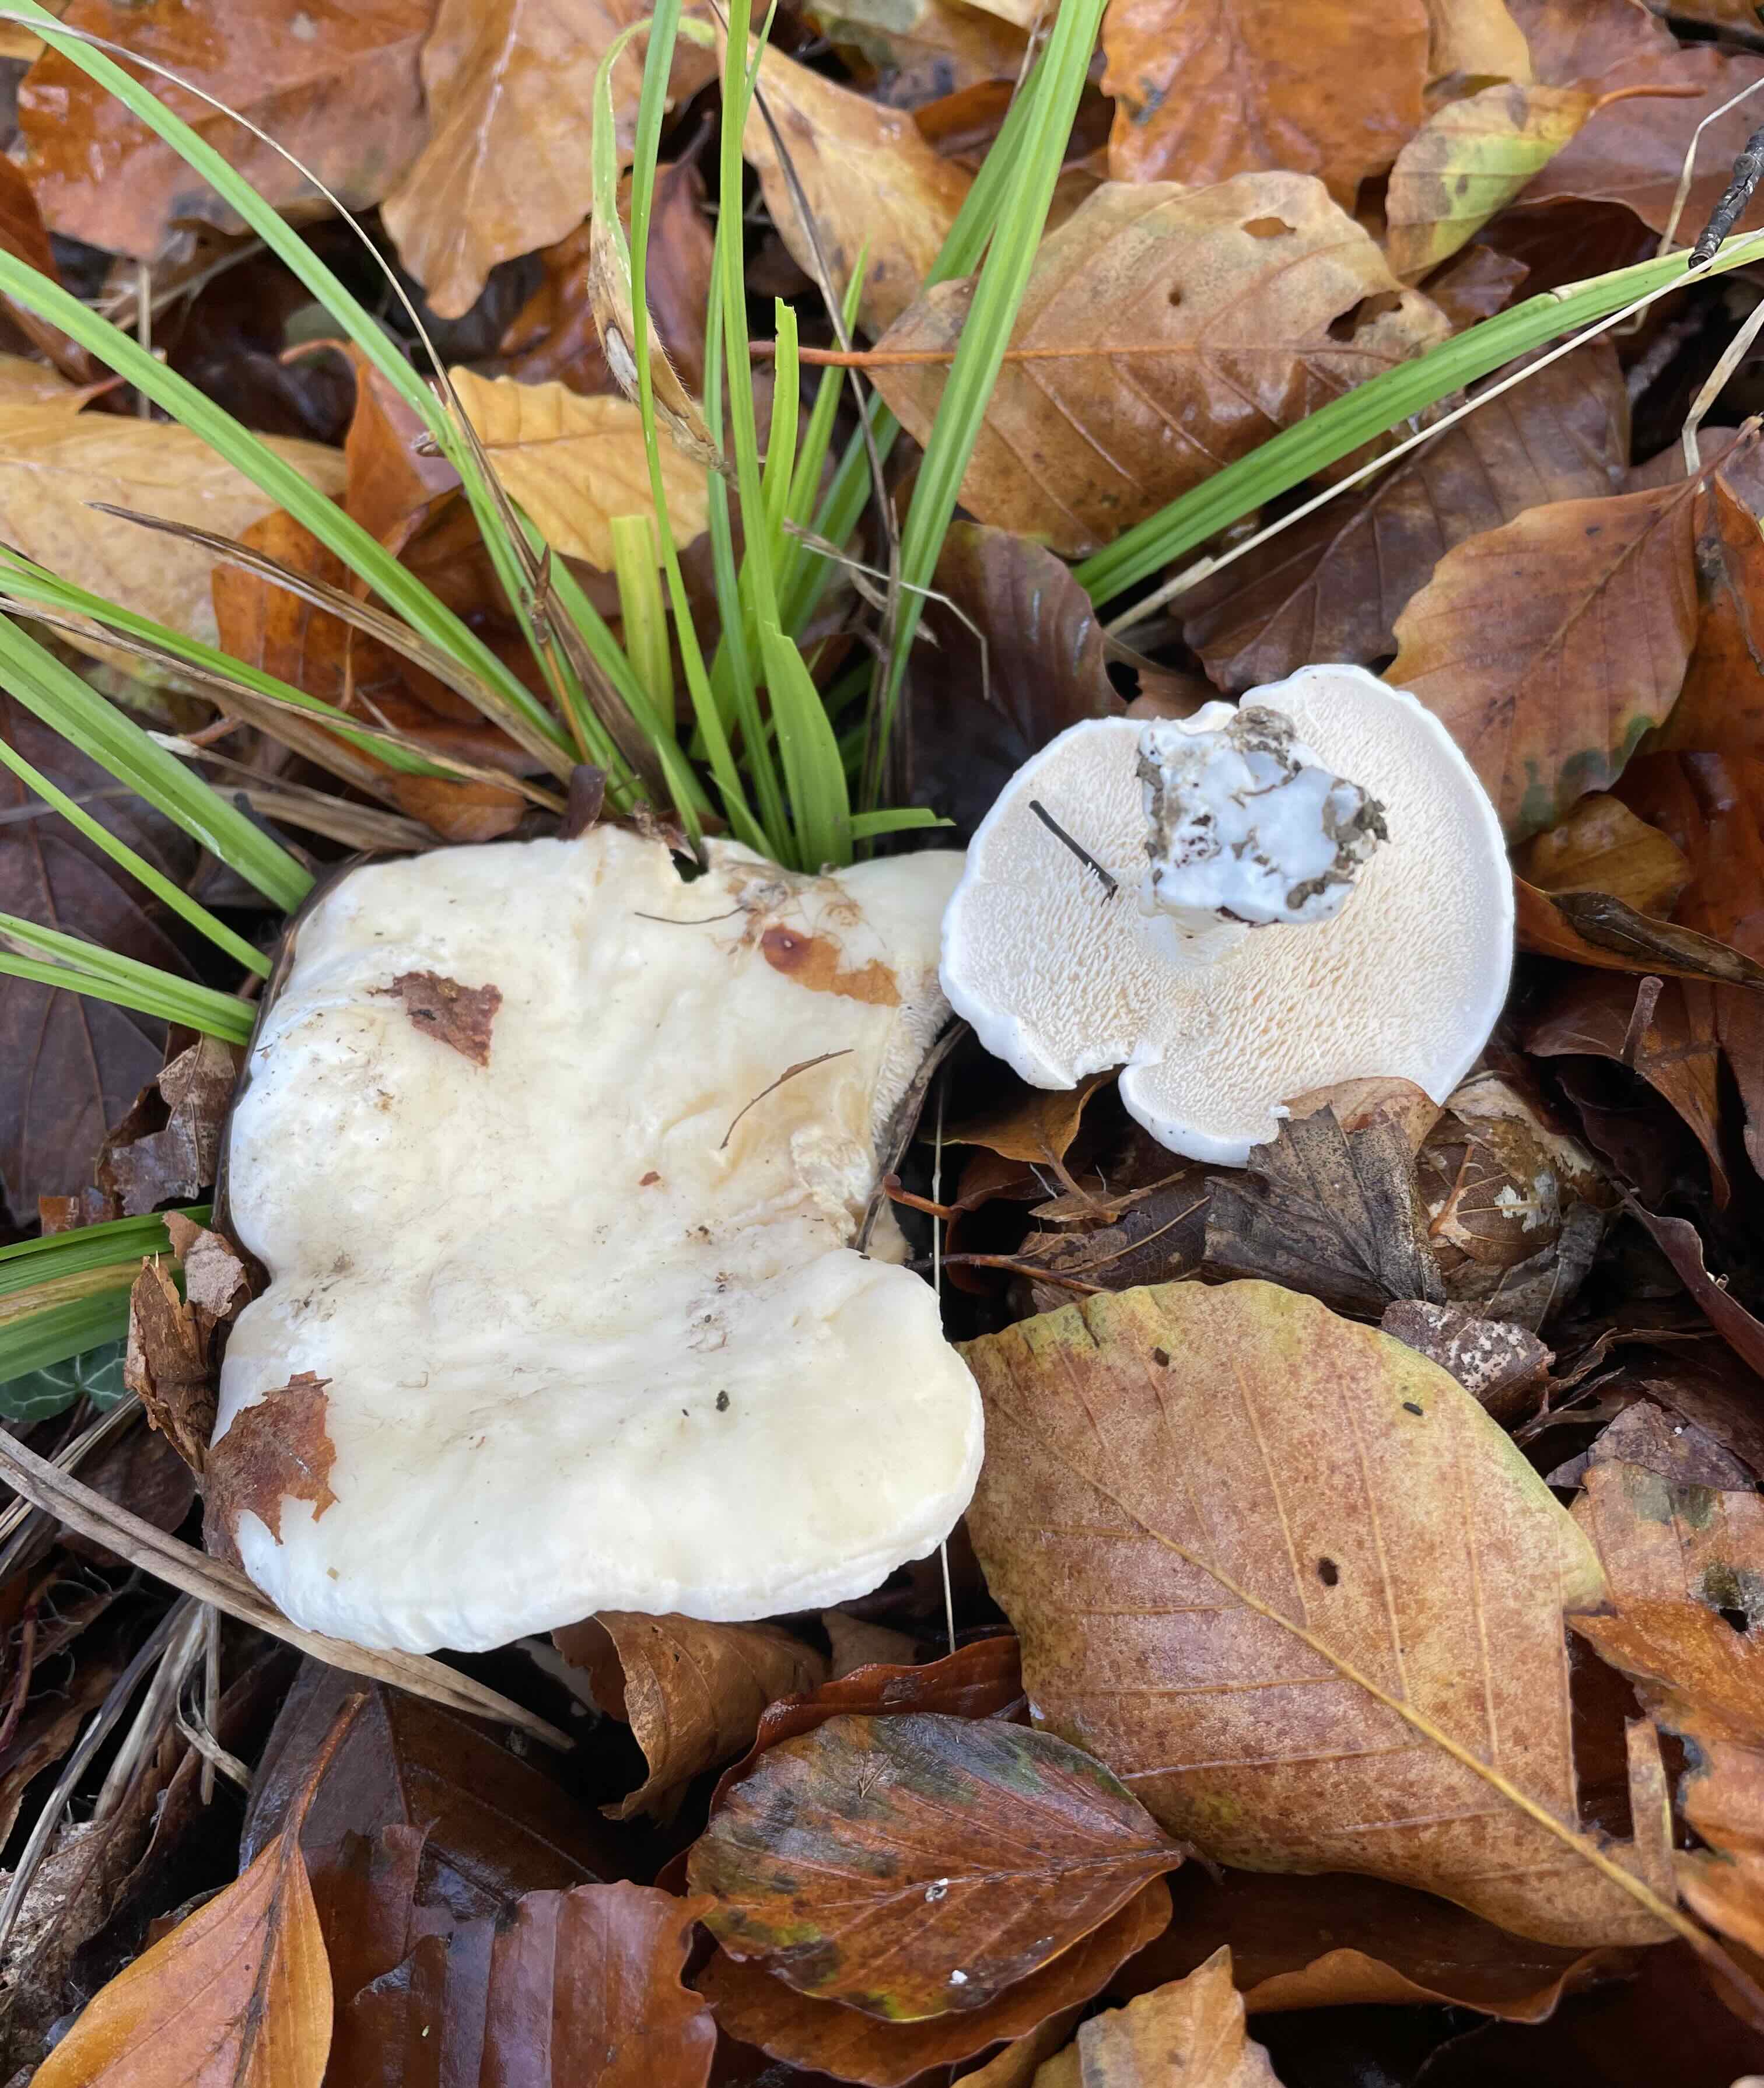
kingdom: Fungi
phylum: Basidiomycota
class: Agaricomycetes
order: Cantharellales
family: Hydnaceae
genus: Hydnum
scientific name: Hydnum repandum
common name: hvid pigsvamp
